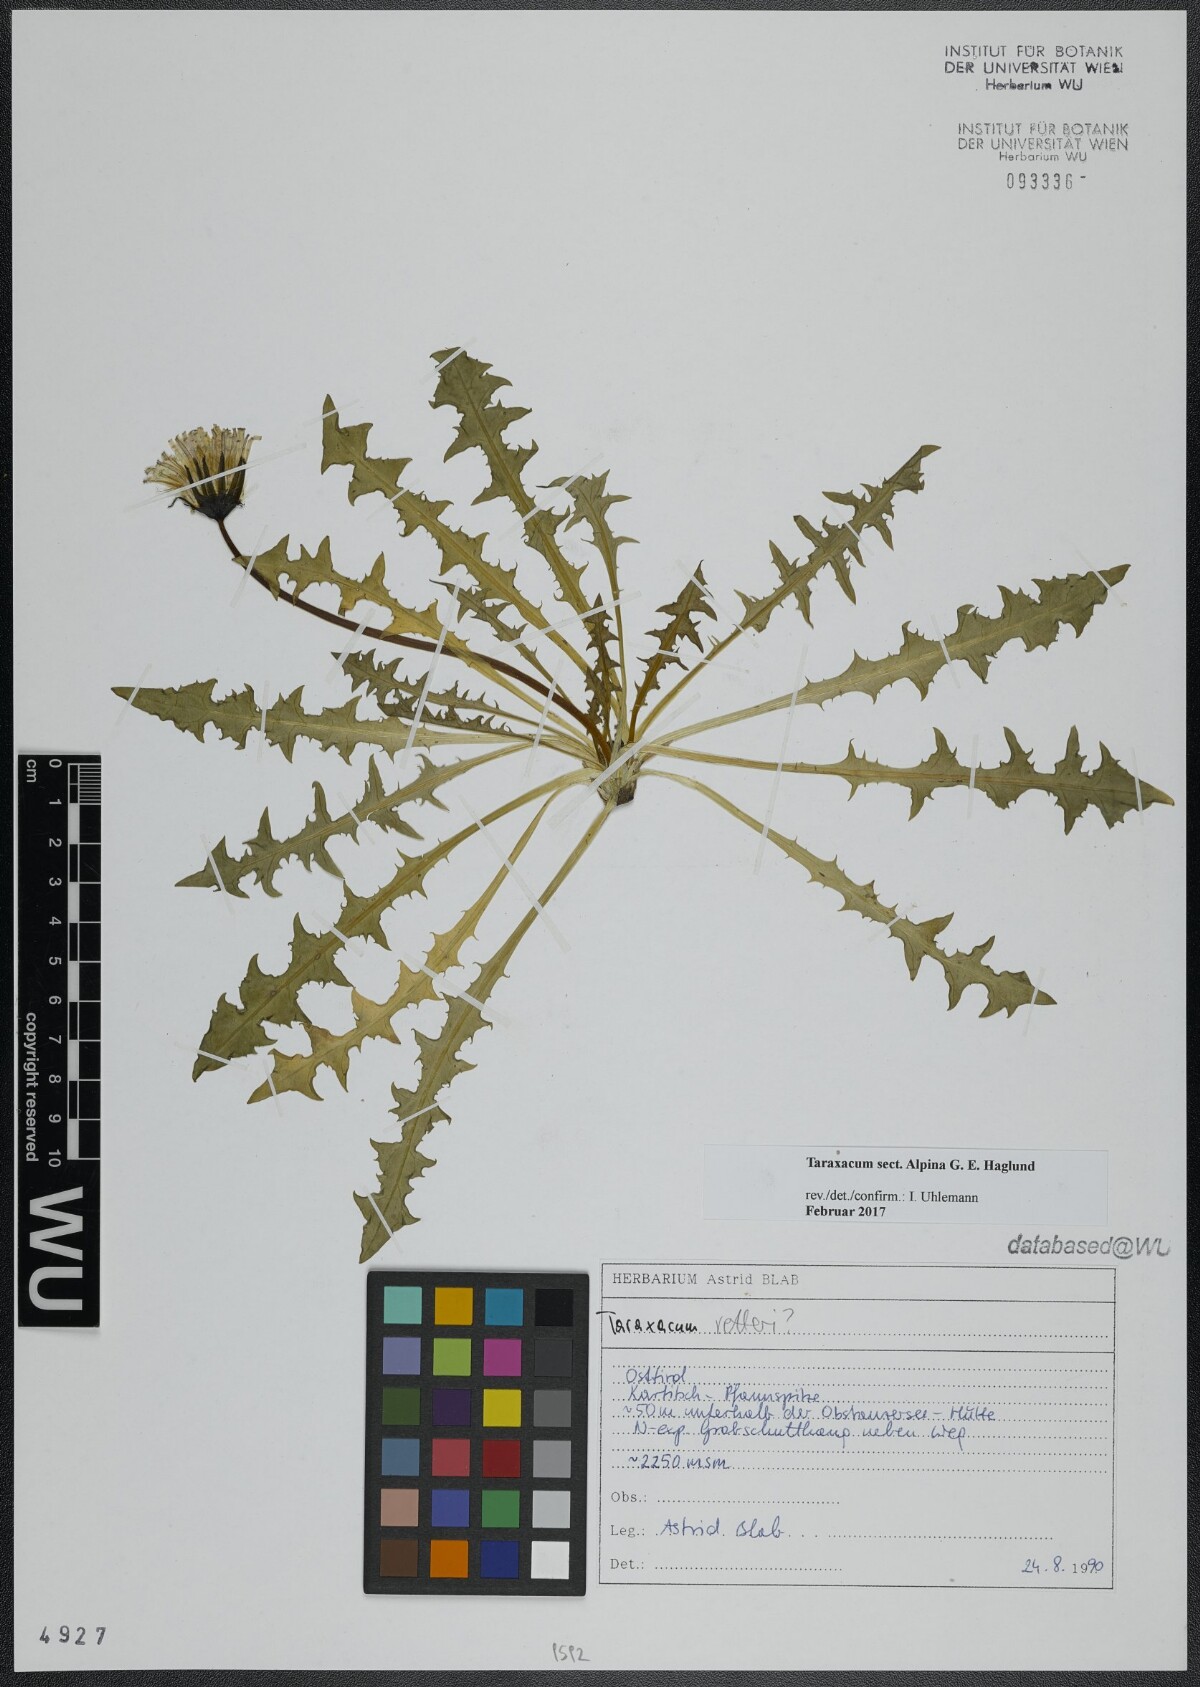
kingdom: Plantae
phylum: Tracheophyta
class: Magnoliopsida
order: Asterales
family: Asteraceae
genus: Taraxacum
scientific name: Taraxacum
